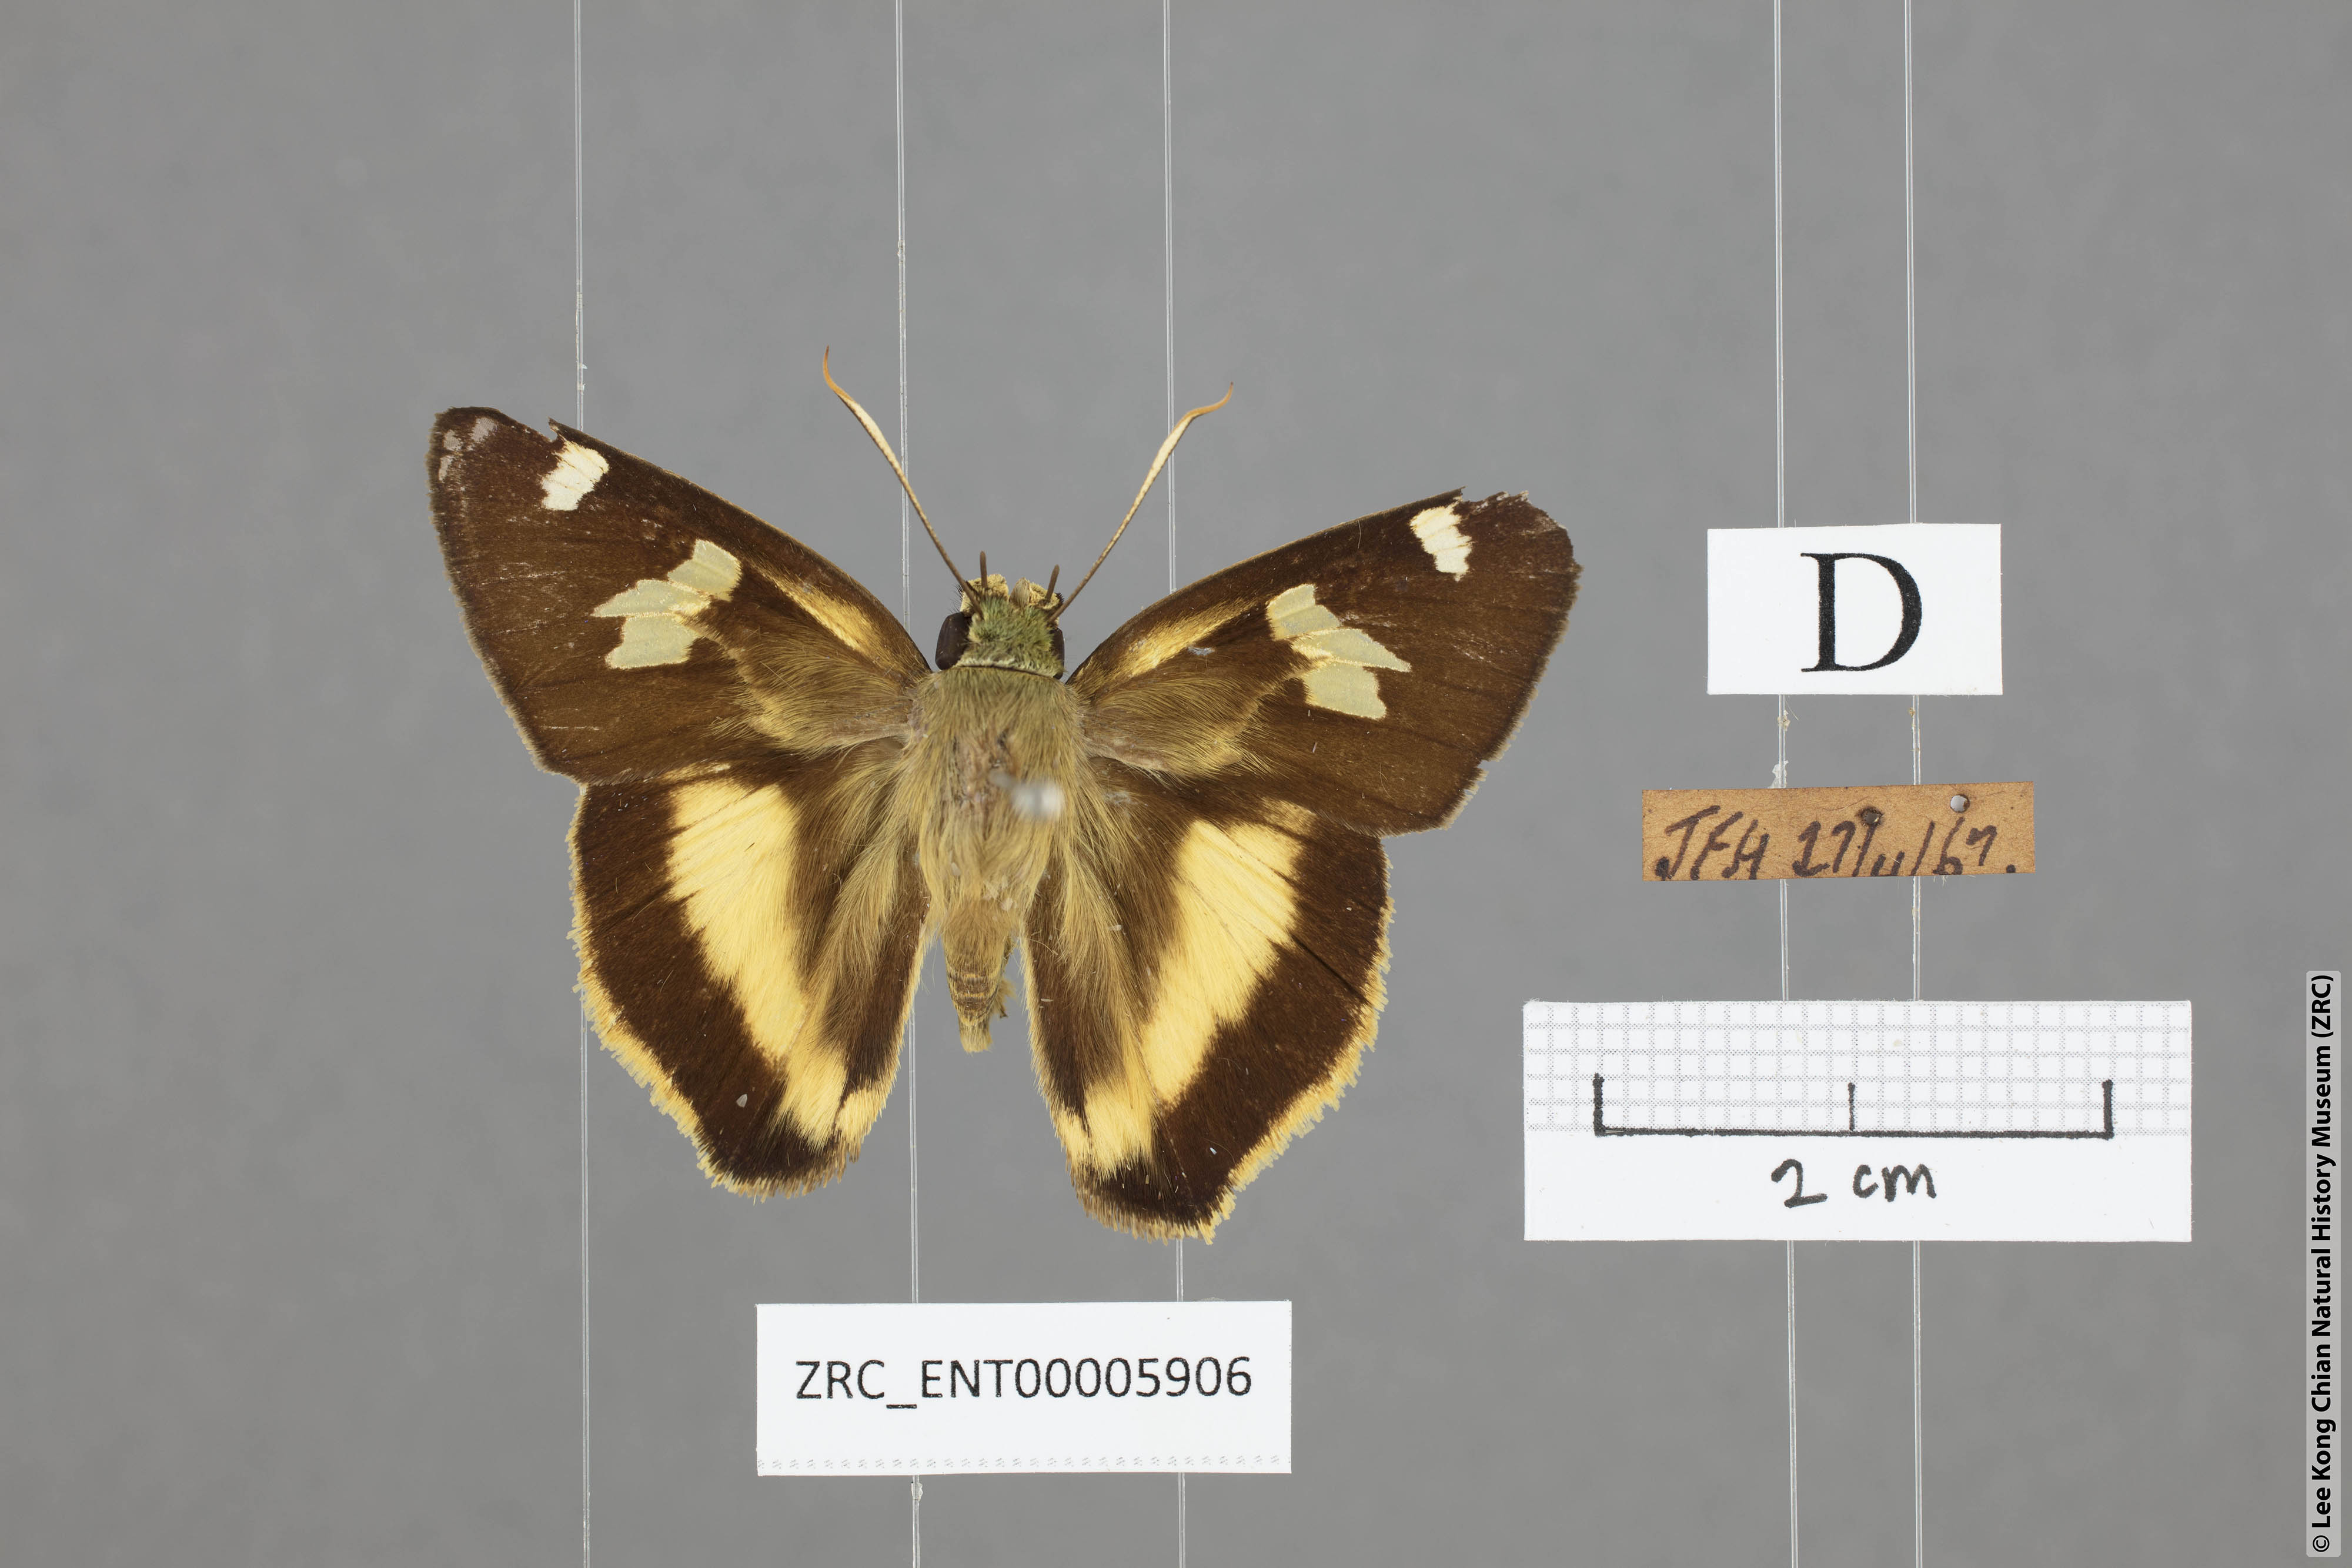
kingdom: Animalia
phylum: Arthropoda
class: Insecta
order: Lepidoptera
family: Hesperiidae
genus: Hasora
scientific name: Hasora schoenherr
